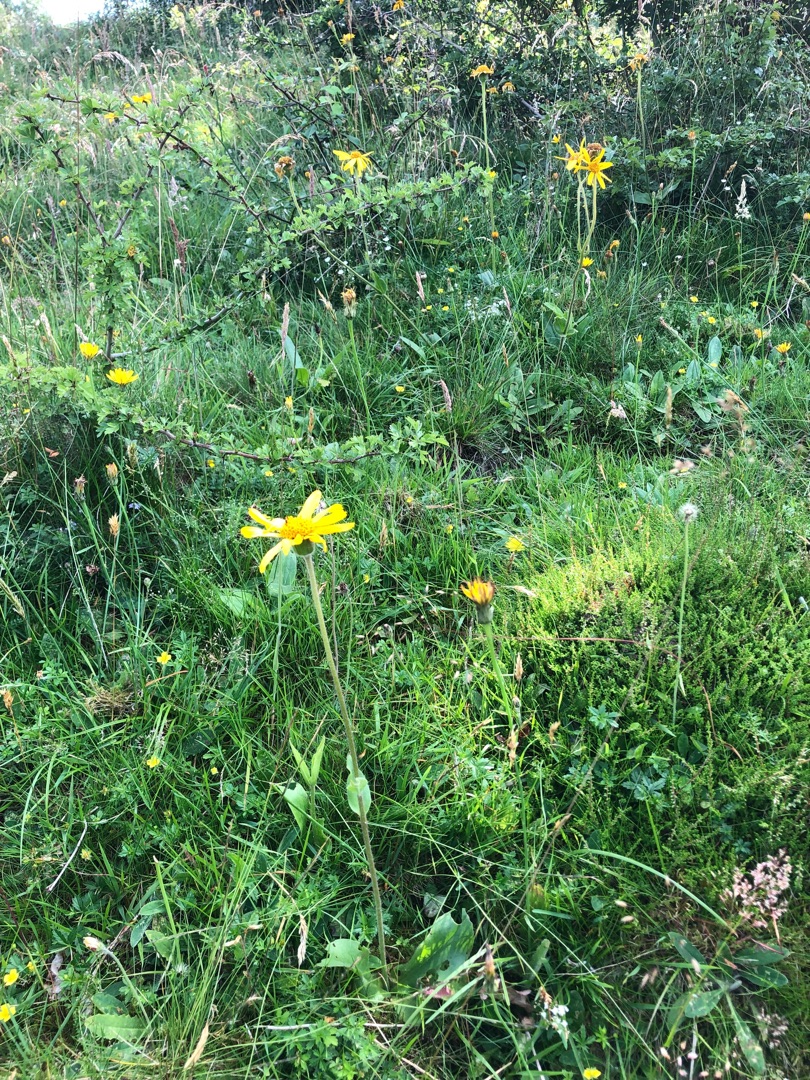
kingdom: Plantae
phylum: Tracheophyta
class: Magnoliopsida
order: Asterales
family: Asteraceae
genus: Arnica
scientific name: Arnica montana
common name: Guldblomme
